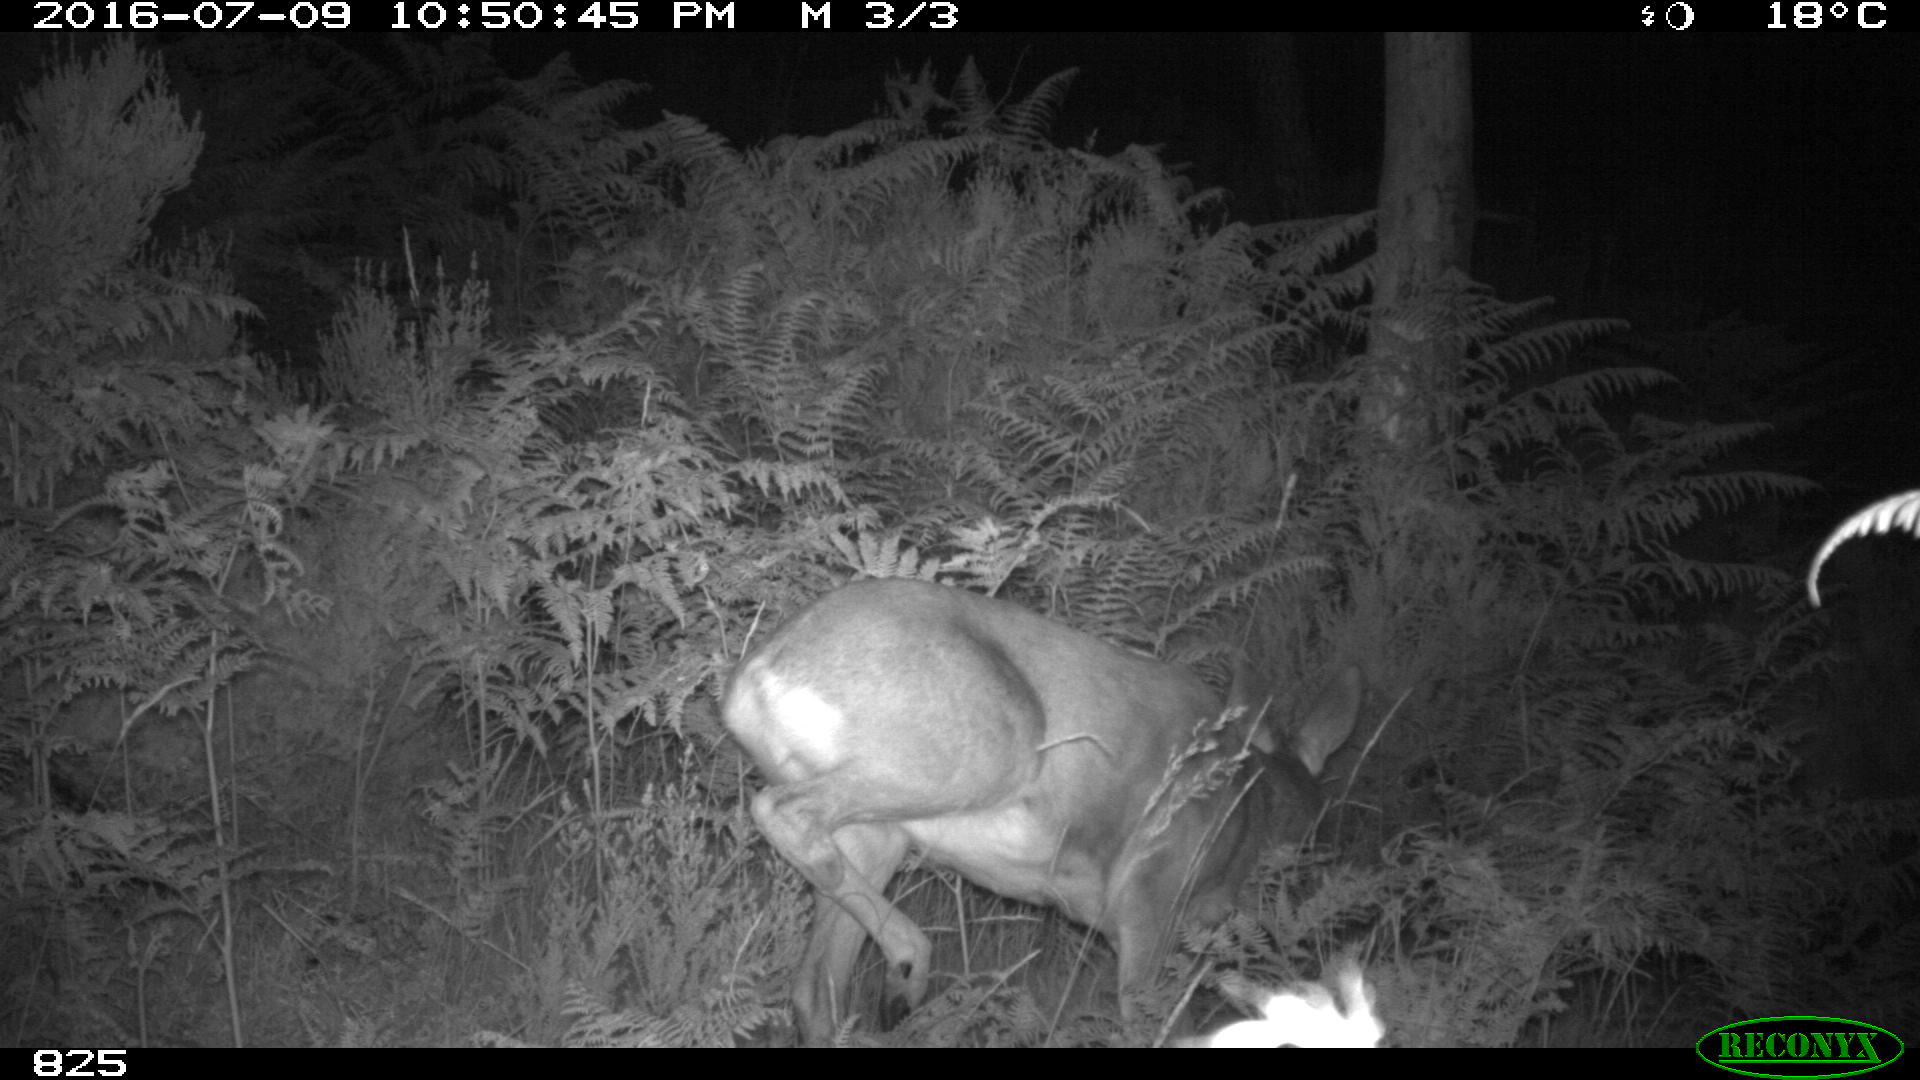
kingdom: Animalia
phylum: Chordata
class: Mammalia
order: Artiodactyla
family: Cervidae
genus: Capreolus
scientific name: Capreolus capreolus
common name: Western roe deer
